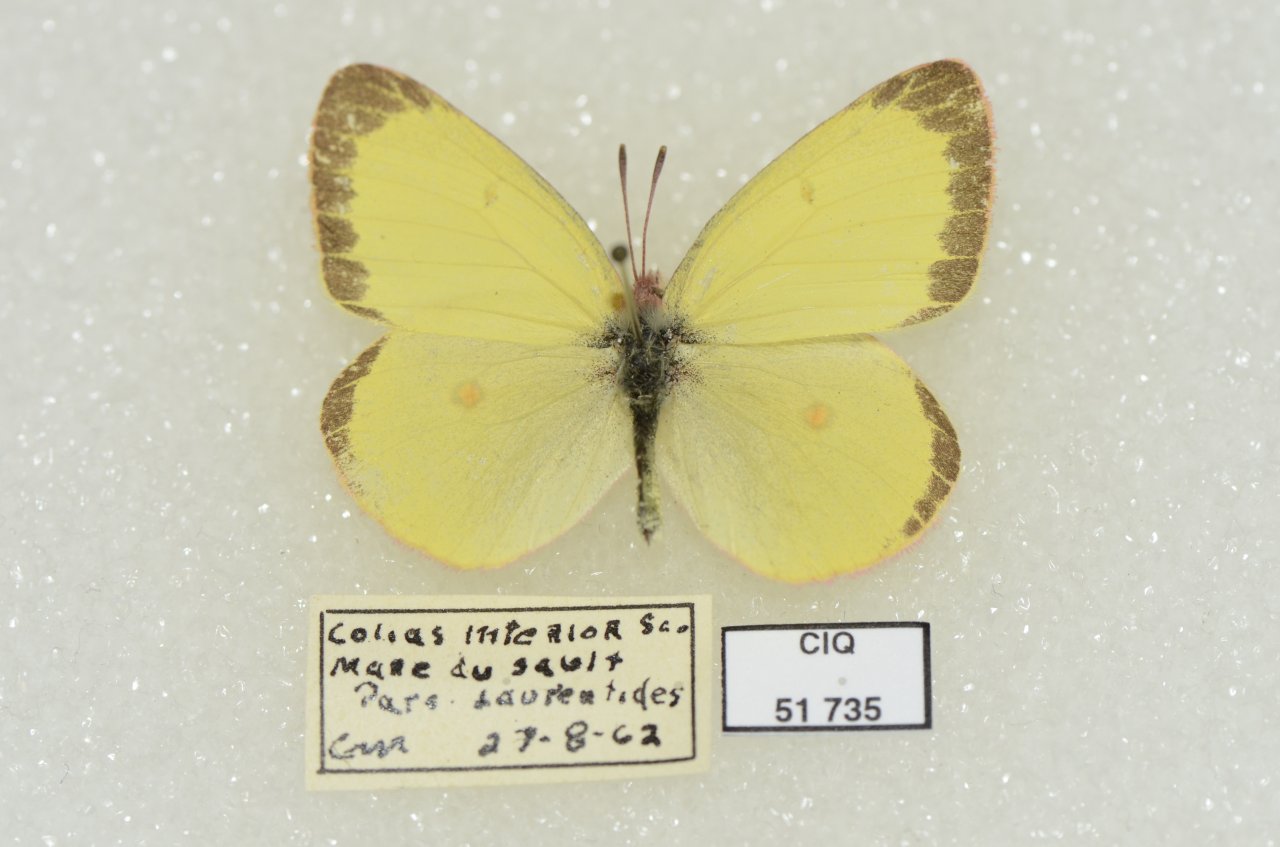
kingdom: Animalia
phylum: Arthropoda
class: Insecta
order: Lepidoptera
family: Pieridae
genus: Colias
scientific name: Colias interior
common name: Pink-edged Sulphur
